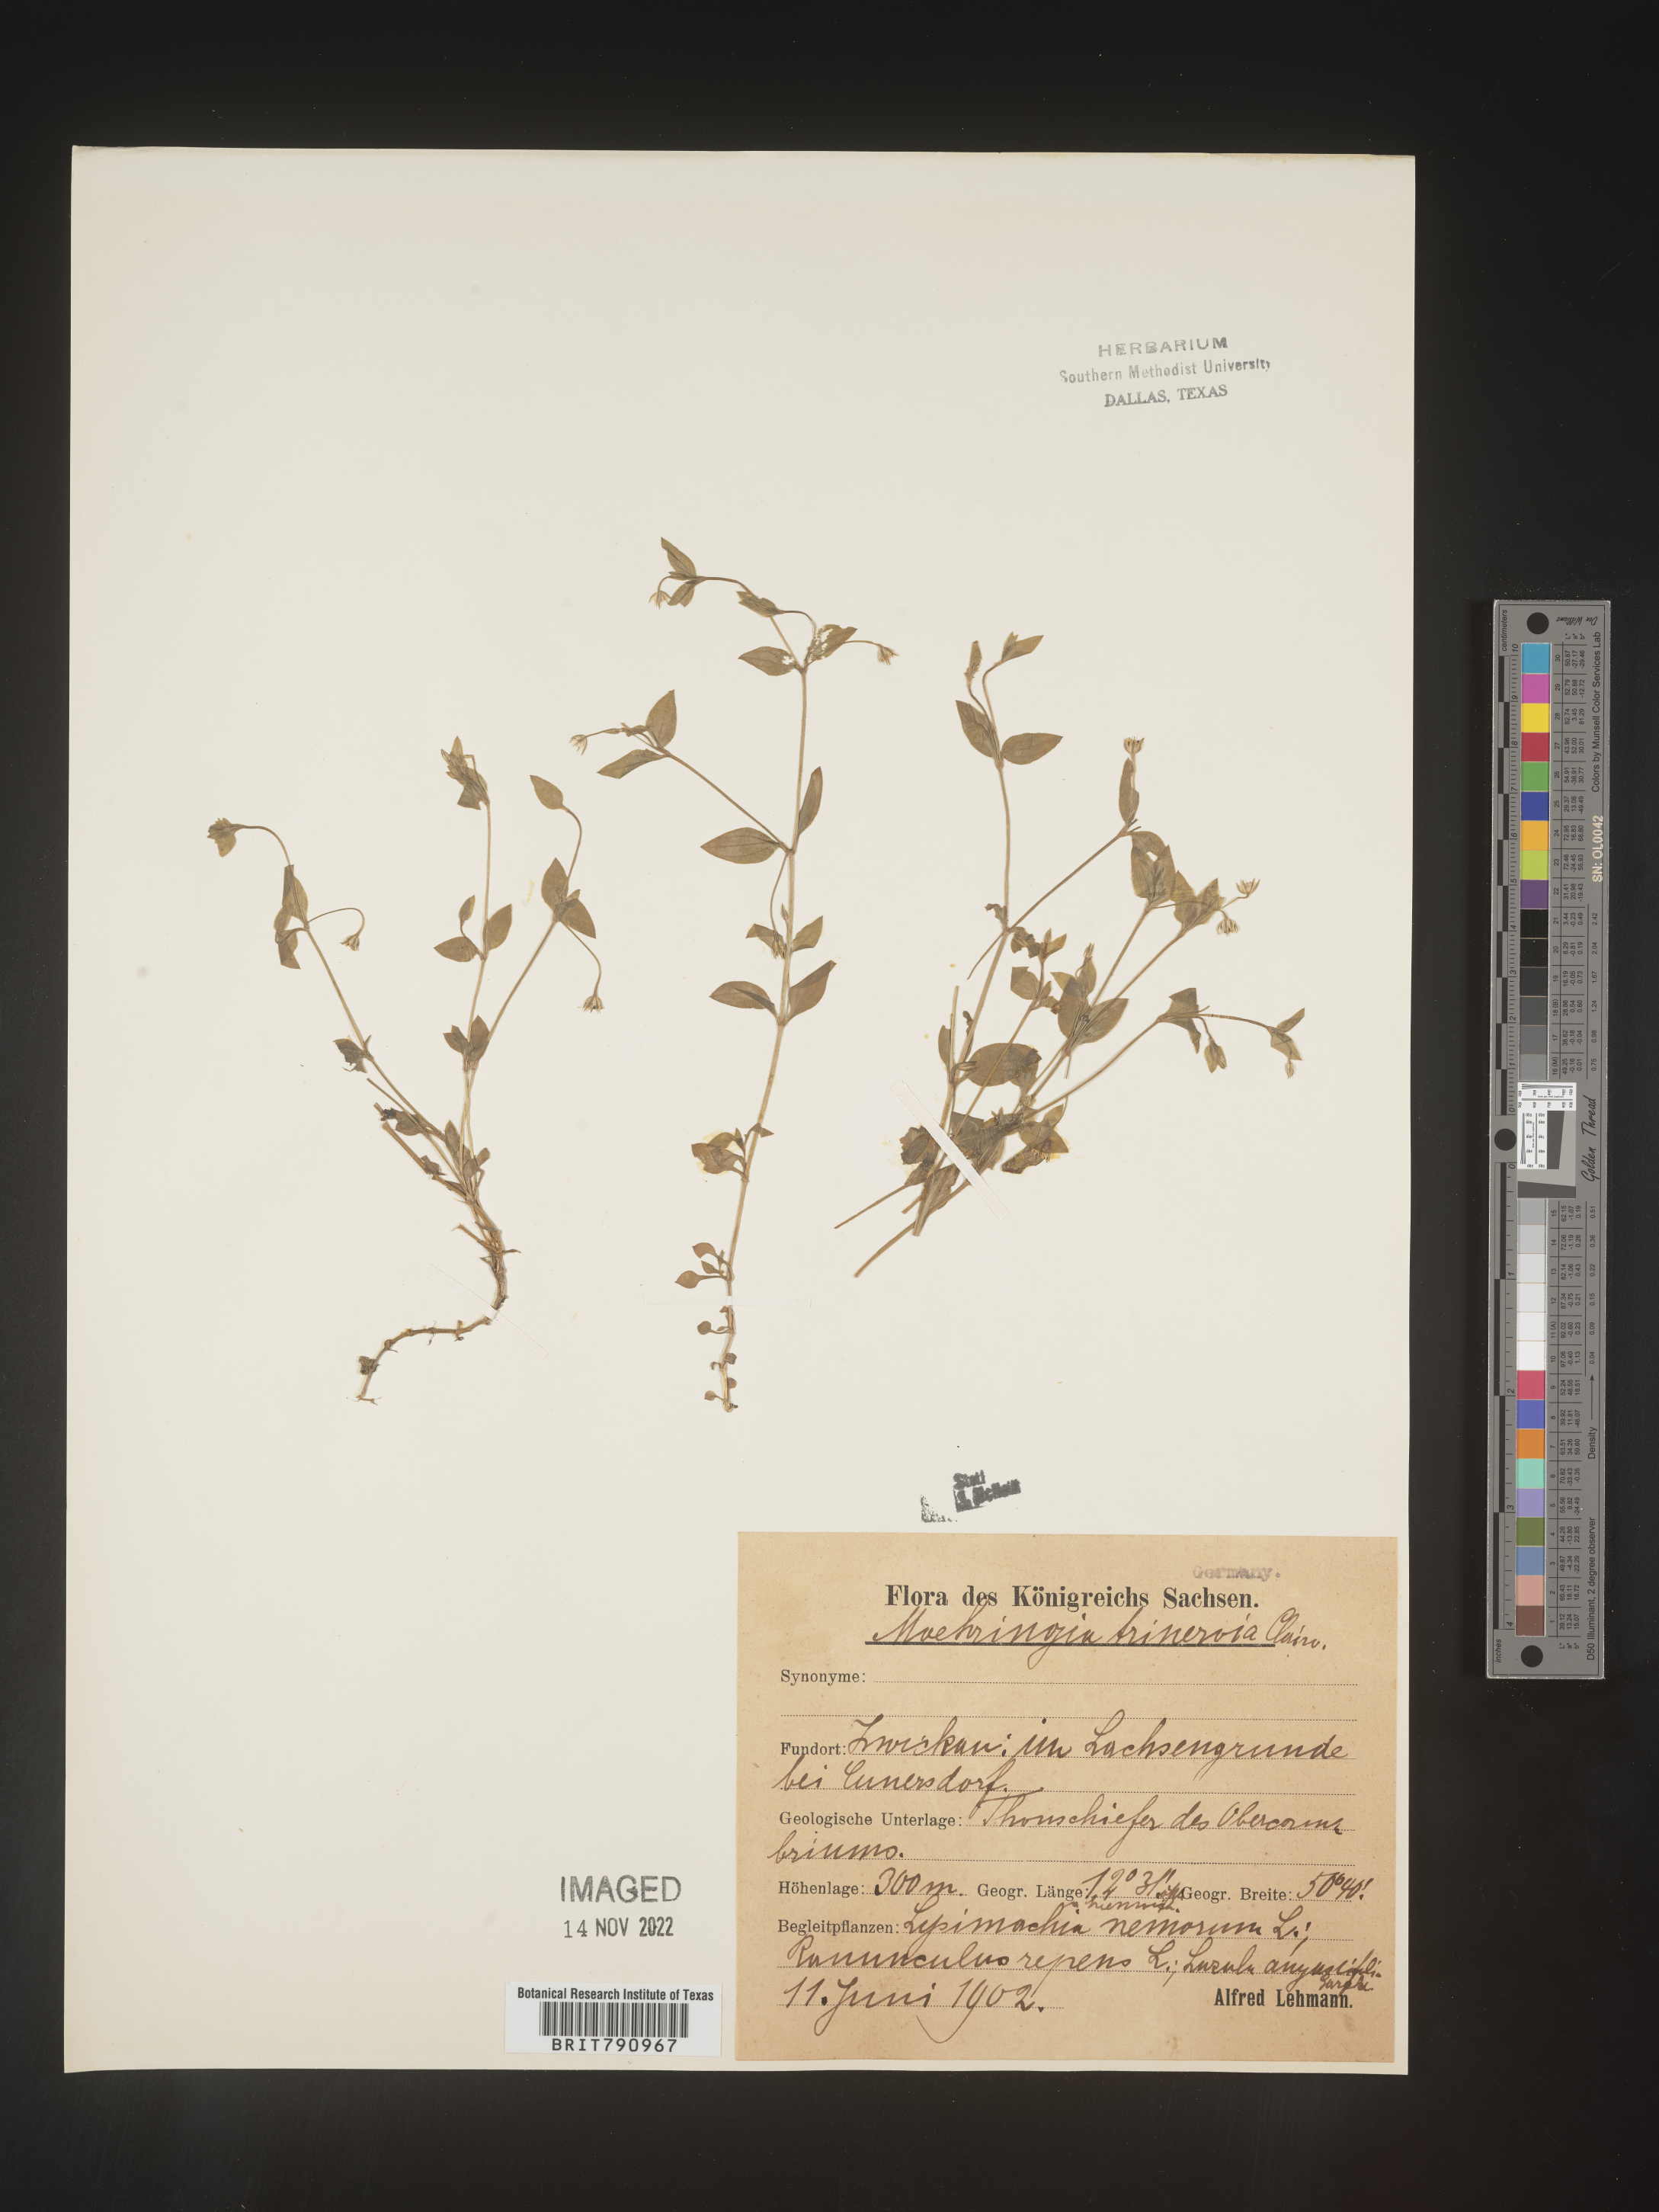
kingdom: Plantae
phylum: Tracheophyta
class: Magnoliopsida
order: Caryophyllales
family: Caryophyllaceae
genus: Moehringia
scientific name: Moehringia
